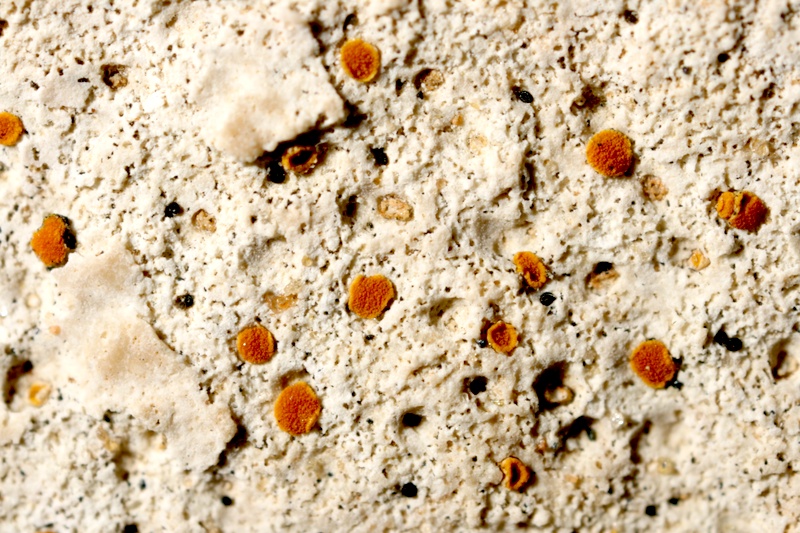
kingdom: Fungi
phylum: Ascomycota
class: Lecanoromycetes
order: Teloschistales
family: Teloschistaceae
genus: Caloplaca
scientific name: Caloplaca
